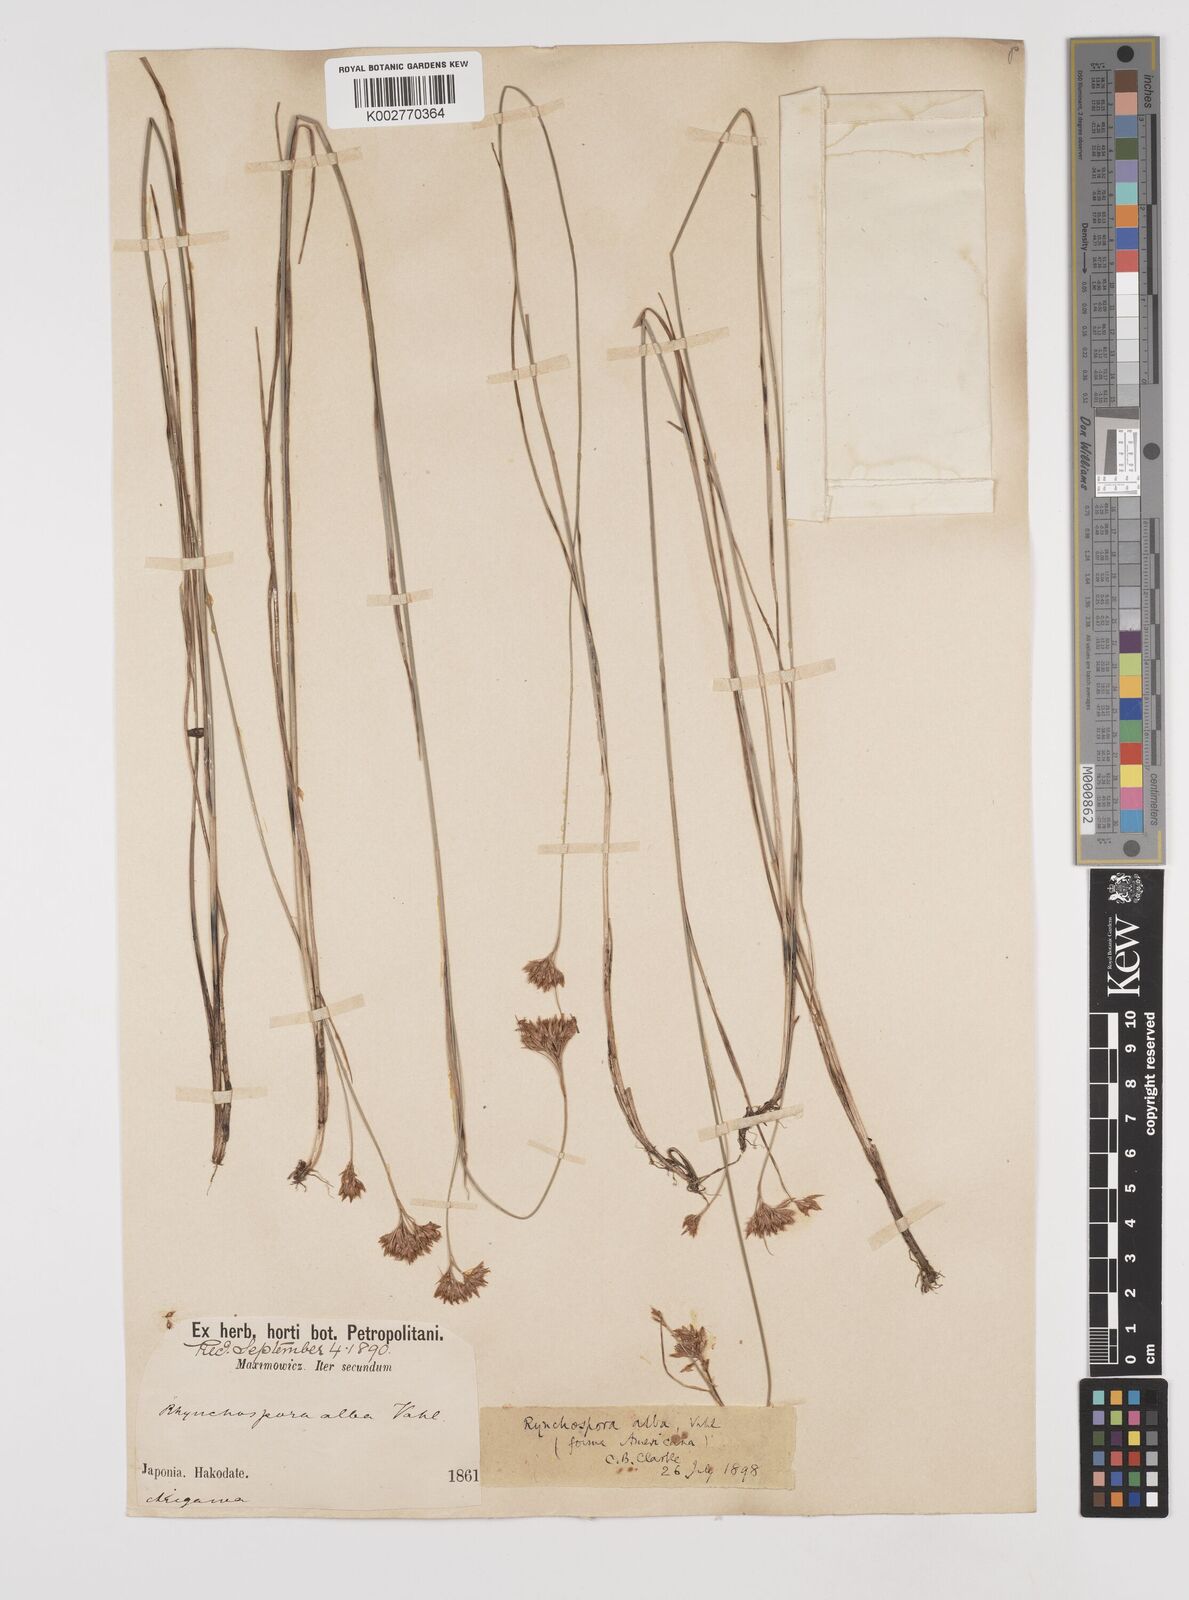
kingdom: Plantae
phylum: Tracheophyta
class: Liliopsida
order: Poales
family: Cyperaceae
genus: Rhynchospora
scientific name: Rhynchospora alba
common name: White beak-sedge
